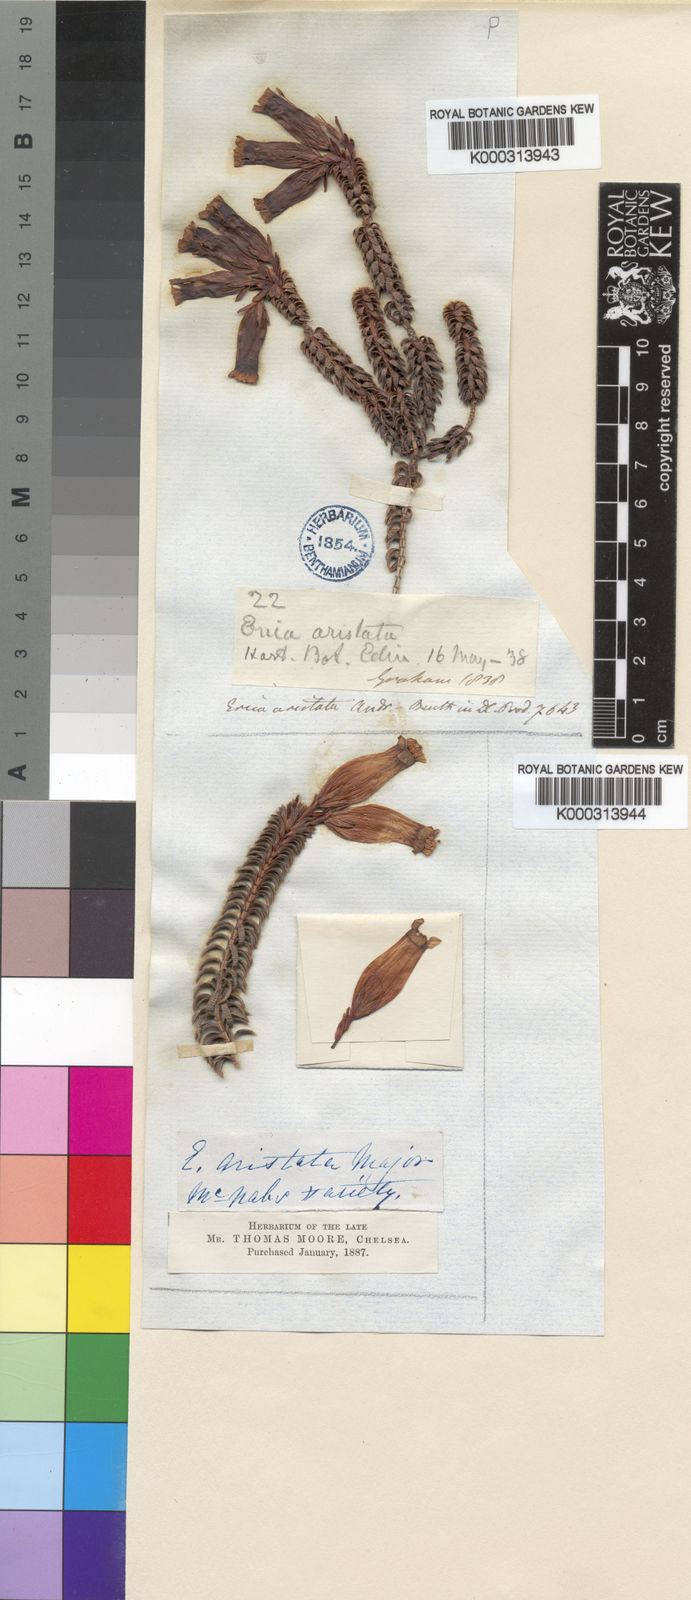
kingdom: Plantae
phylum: Tracheophyta
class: Magnoliopsida
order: Ericales
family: Ericaceae
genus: Erica
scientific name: Erica aristata
